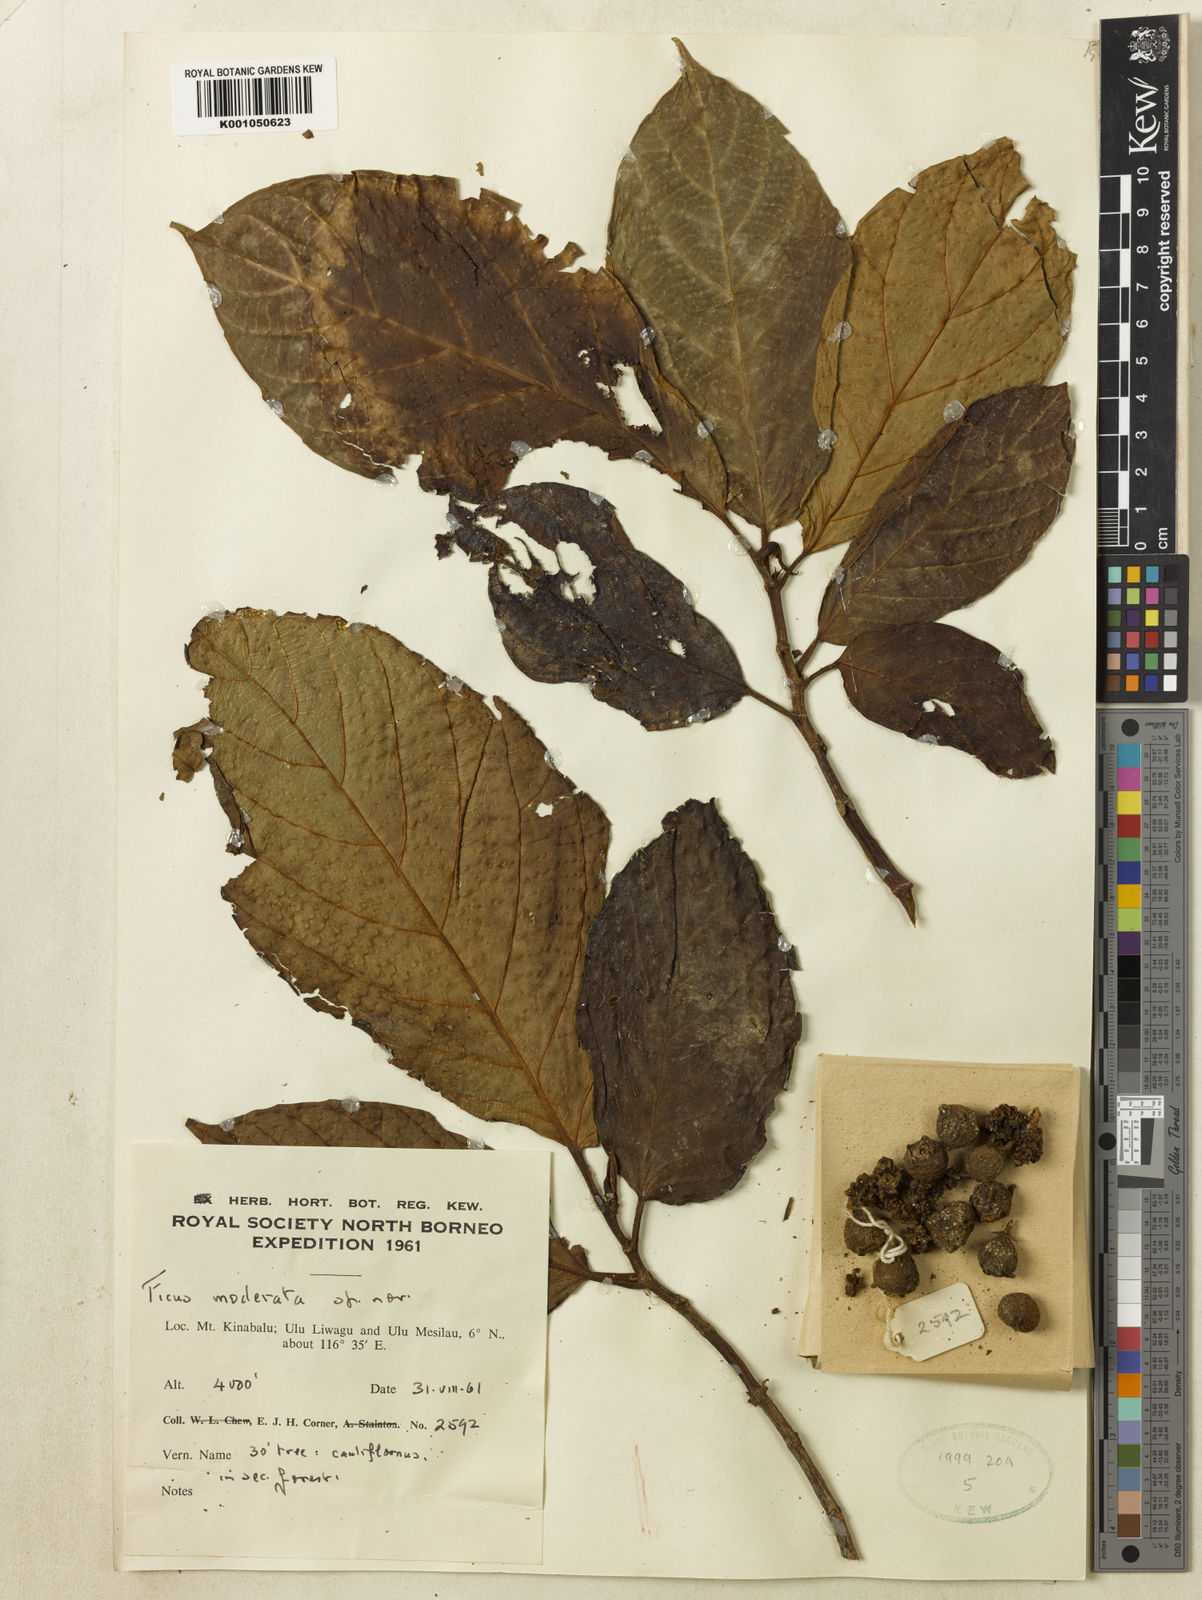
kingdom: Plantae
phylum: Tracheophyta
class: Magnoliopsida
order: Rosales
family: Moraceae
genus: Ficus
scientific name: Ficus satterthwaitei
